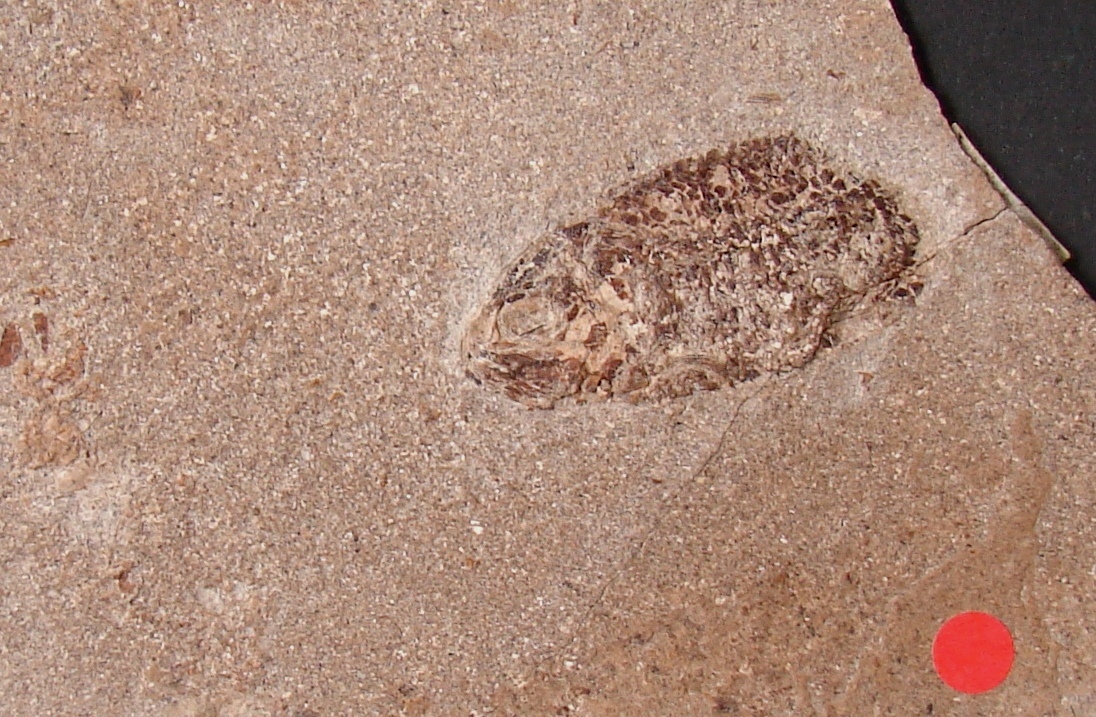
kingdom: Animalia
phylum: Chordata
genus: Luxembourgichthys
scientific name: Luxembourgichthys friedeni
